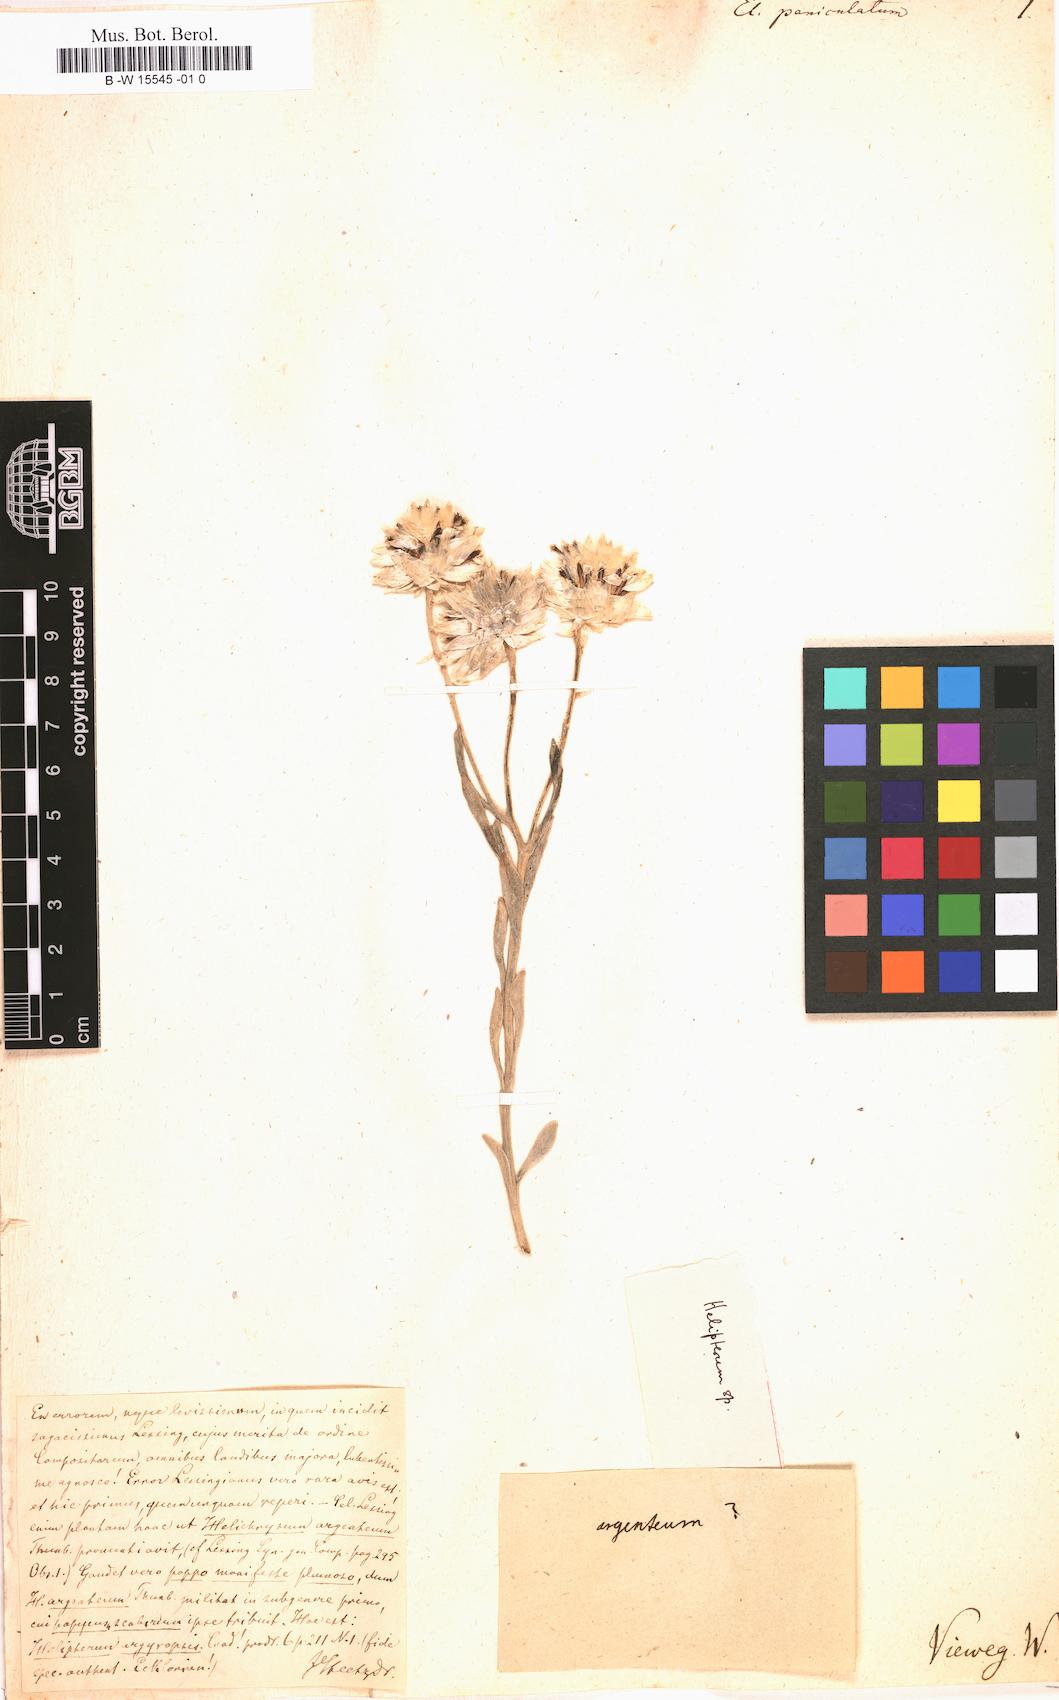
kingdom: Plantae
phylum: Tracheophyta
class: Magnoliopsida
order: Asterales
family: Asteraceae
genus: Helichrysum
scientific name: Helichrysum
